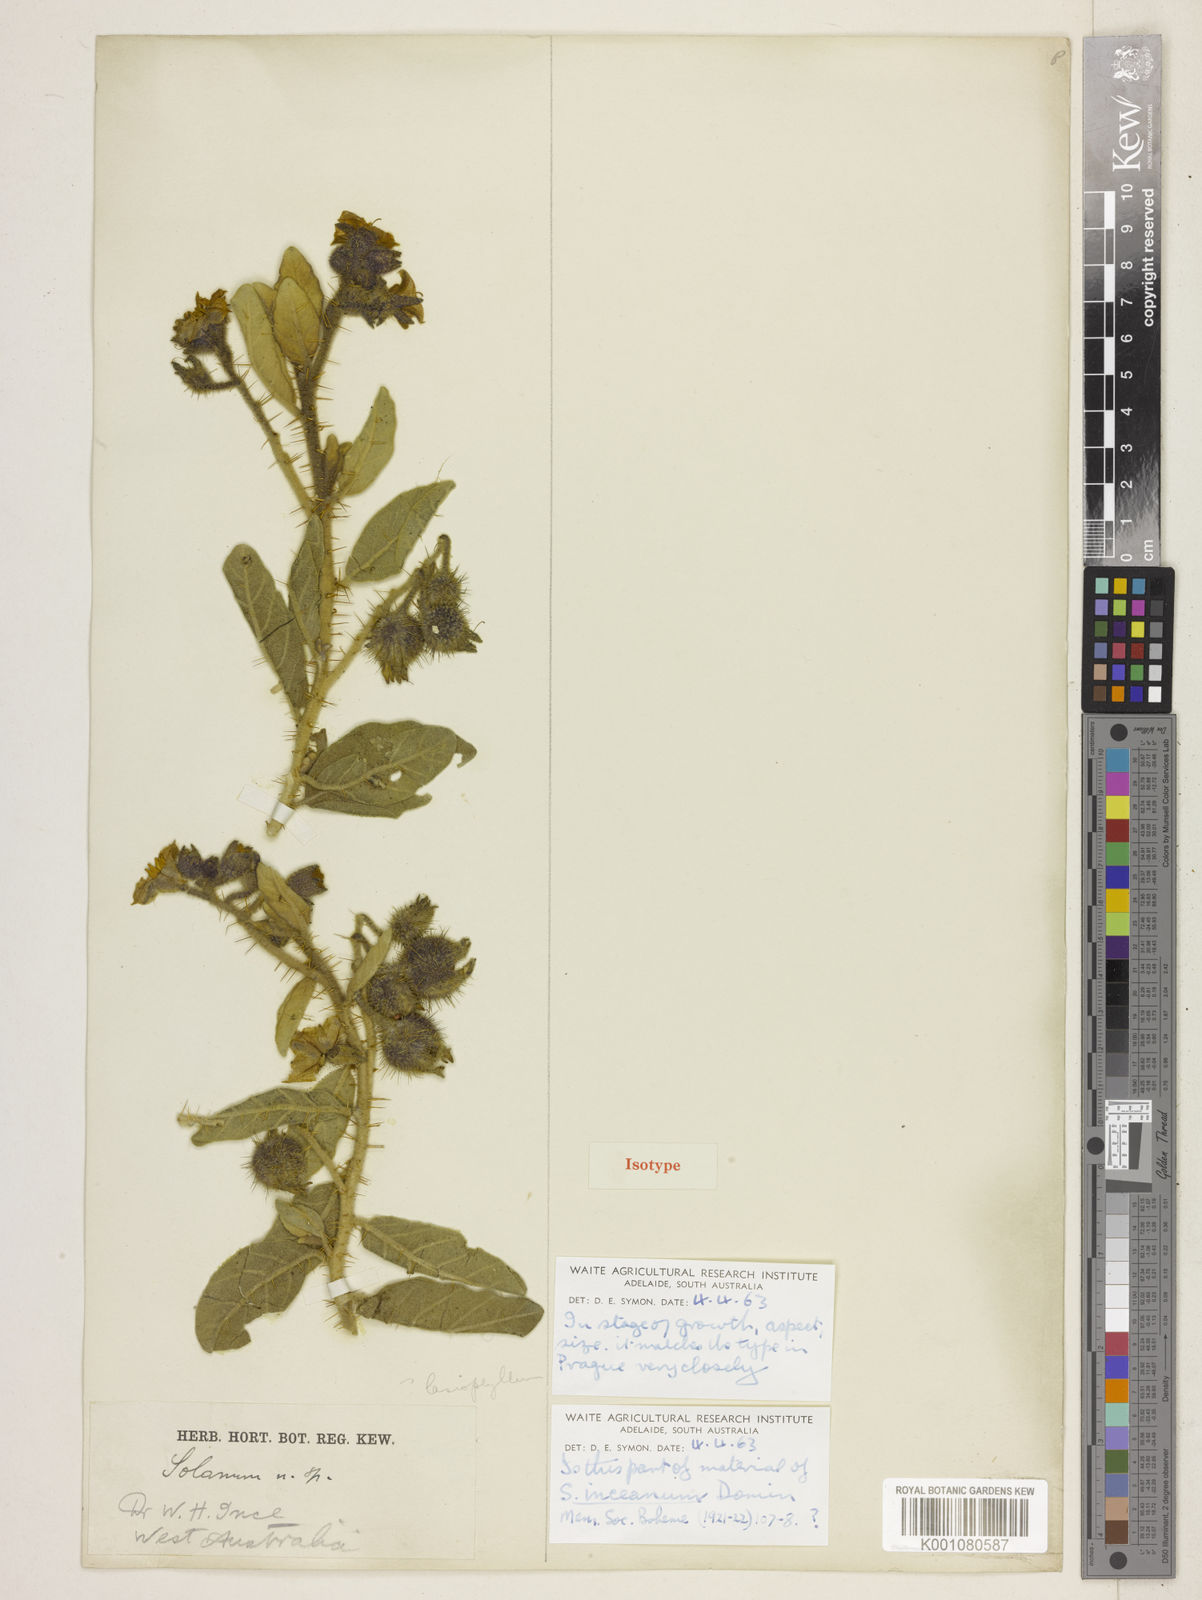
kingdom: Plantae
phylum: Tracheophyta
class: Magnoliopsida
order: Solanales
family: Solanaceae
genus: Solanum
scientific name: Solanum lasiophyllum
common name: Flannelbush
